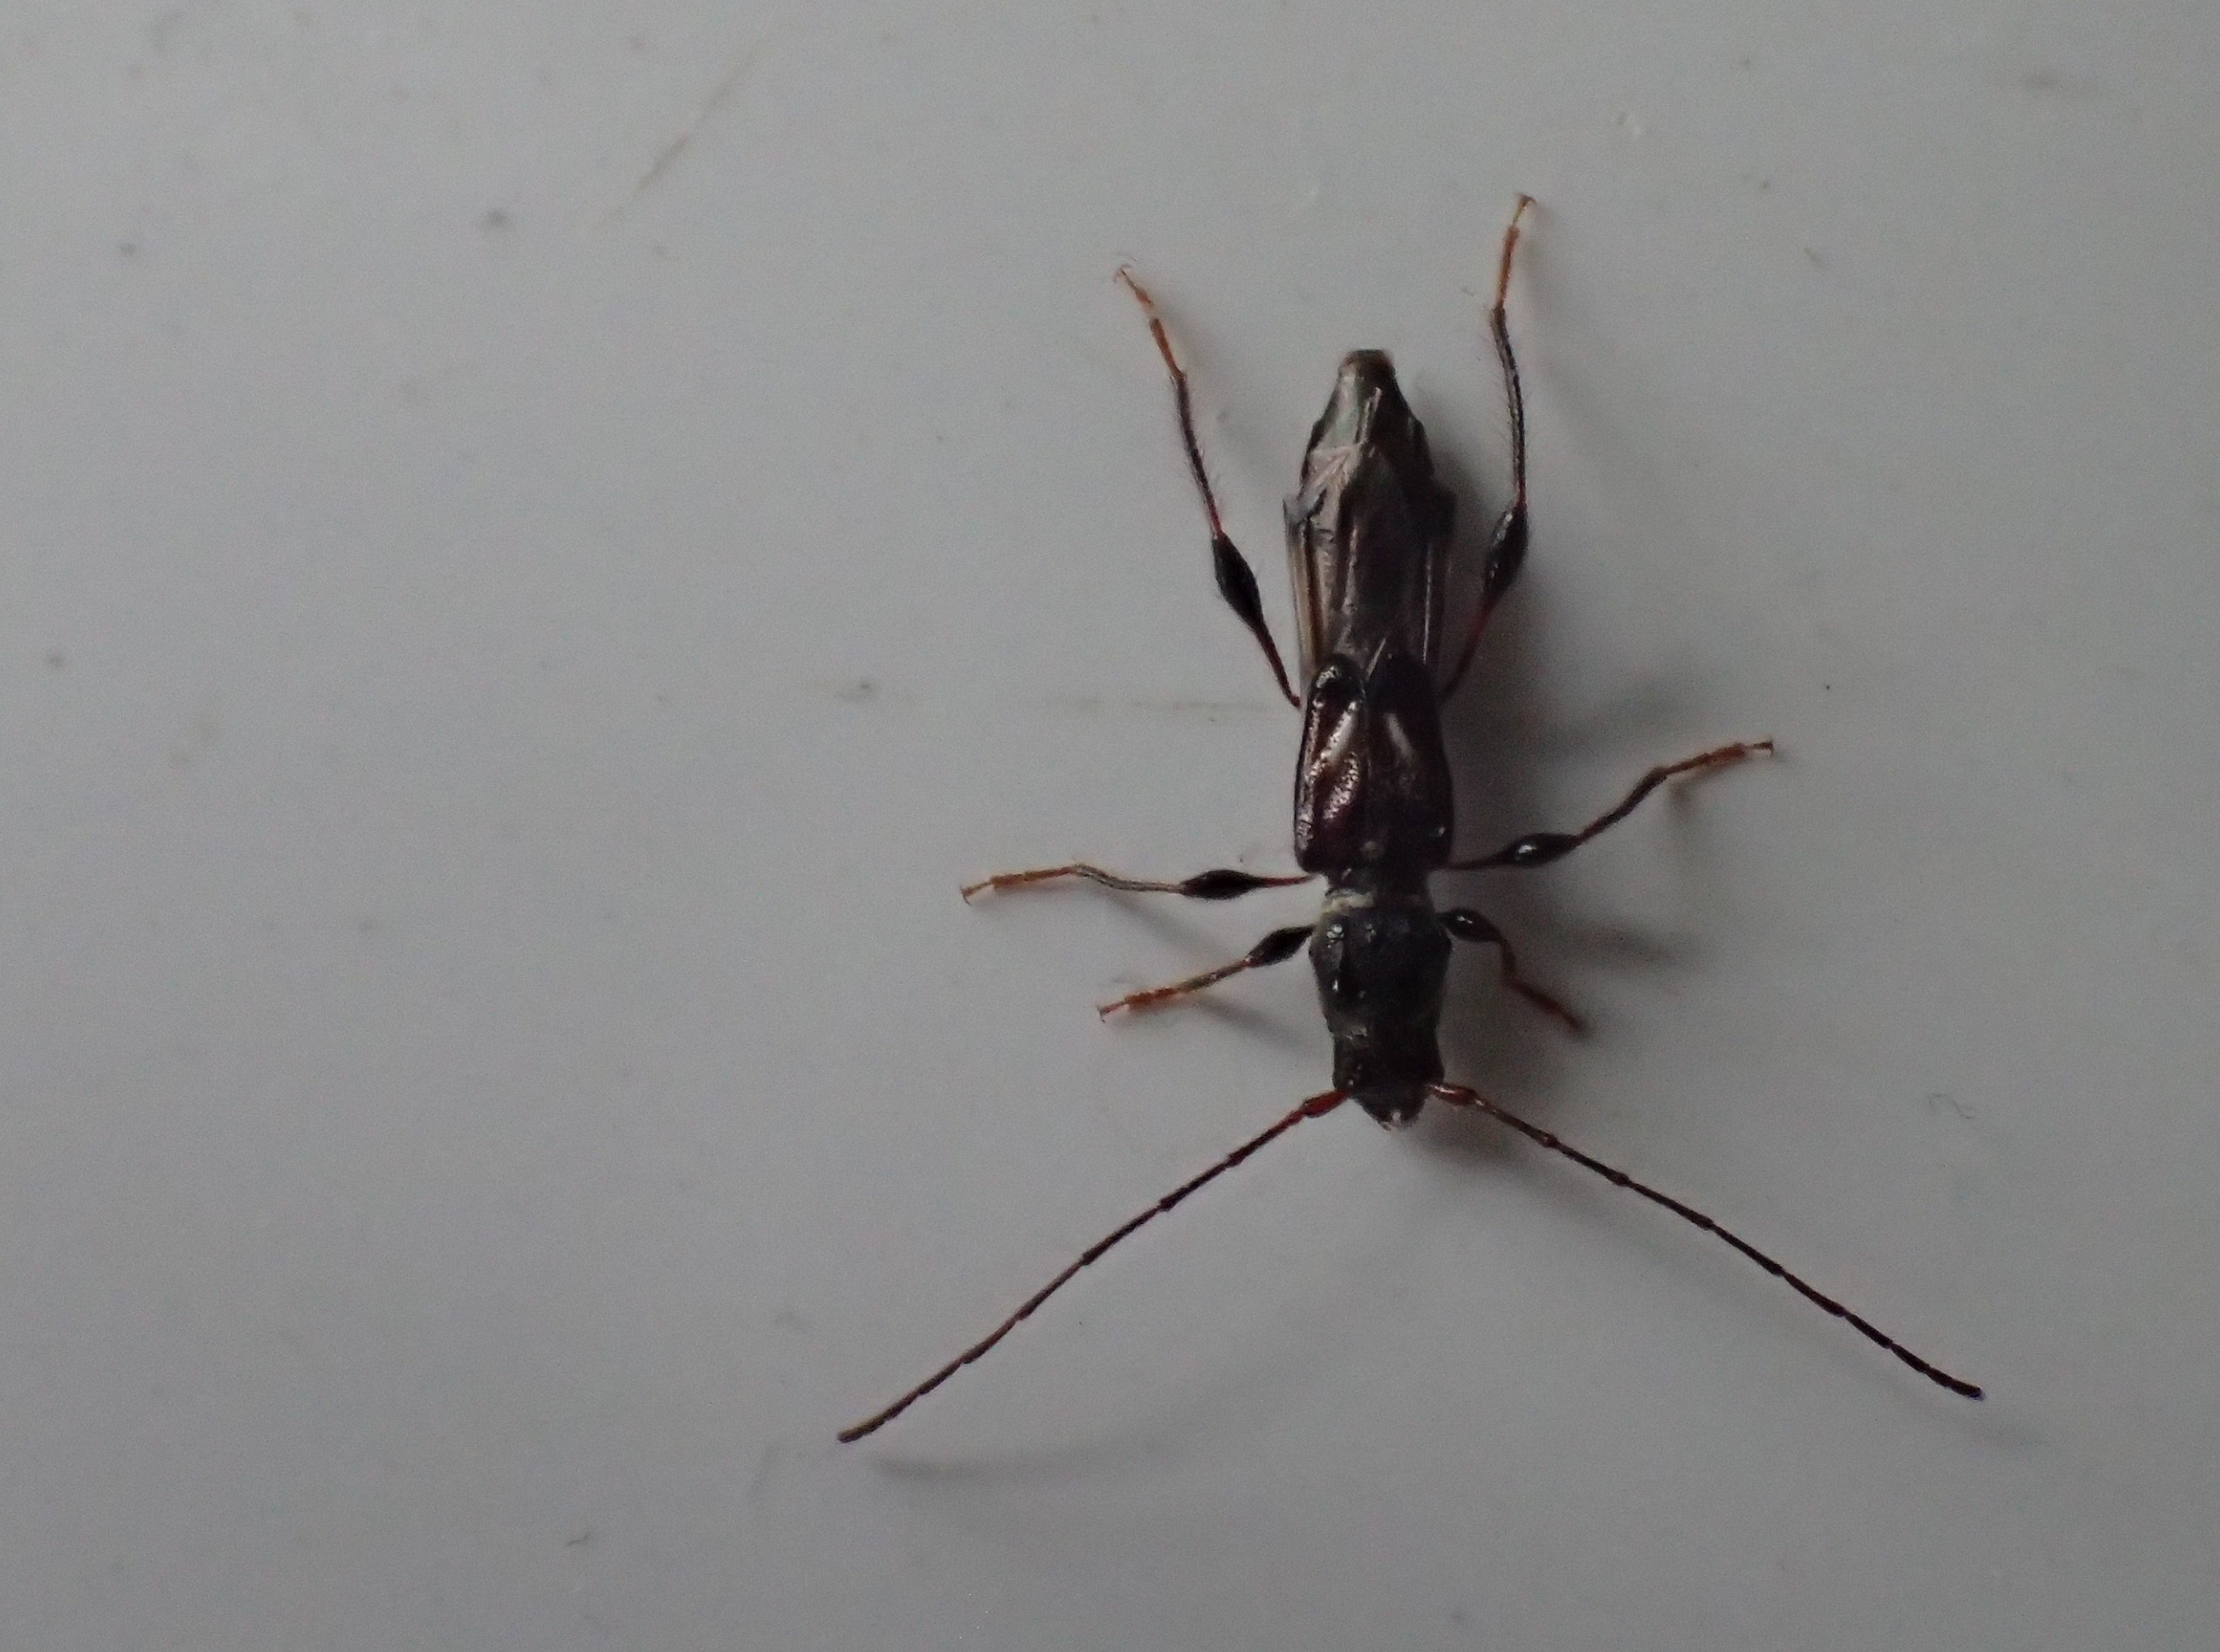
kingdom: Animalia
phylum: Arthropoda
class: Insecta
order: Coleoptera
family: Cerambycidae
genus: Molorchus
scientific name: Molorchus minor
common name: Fluebuk
